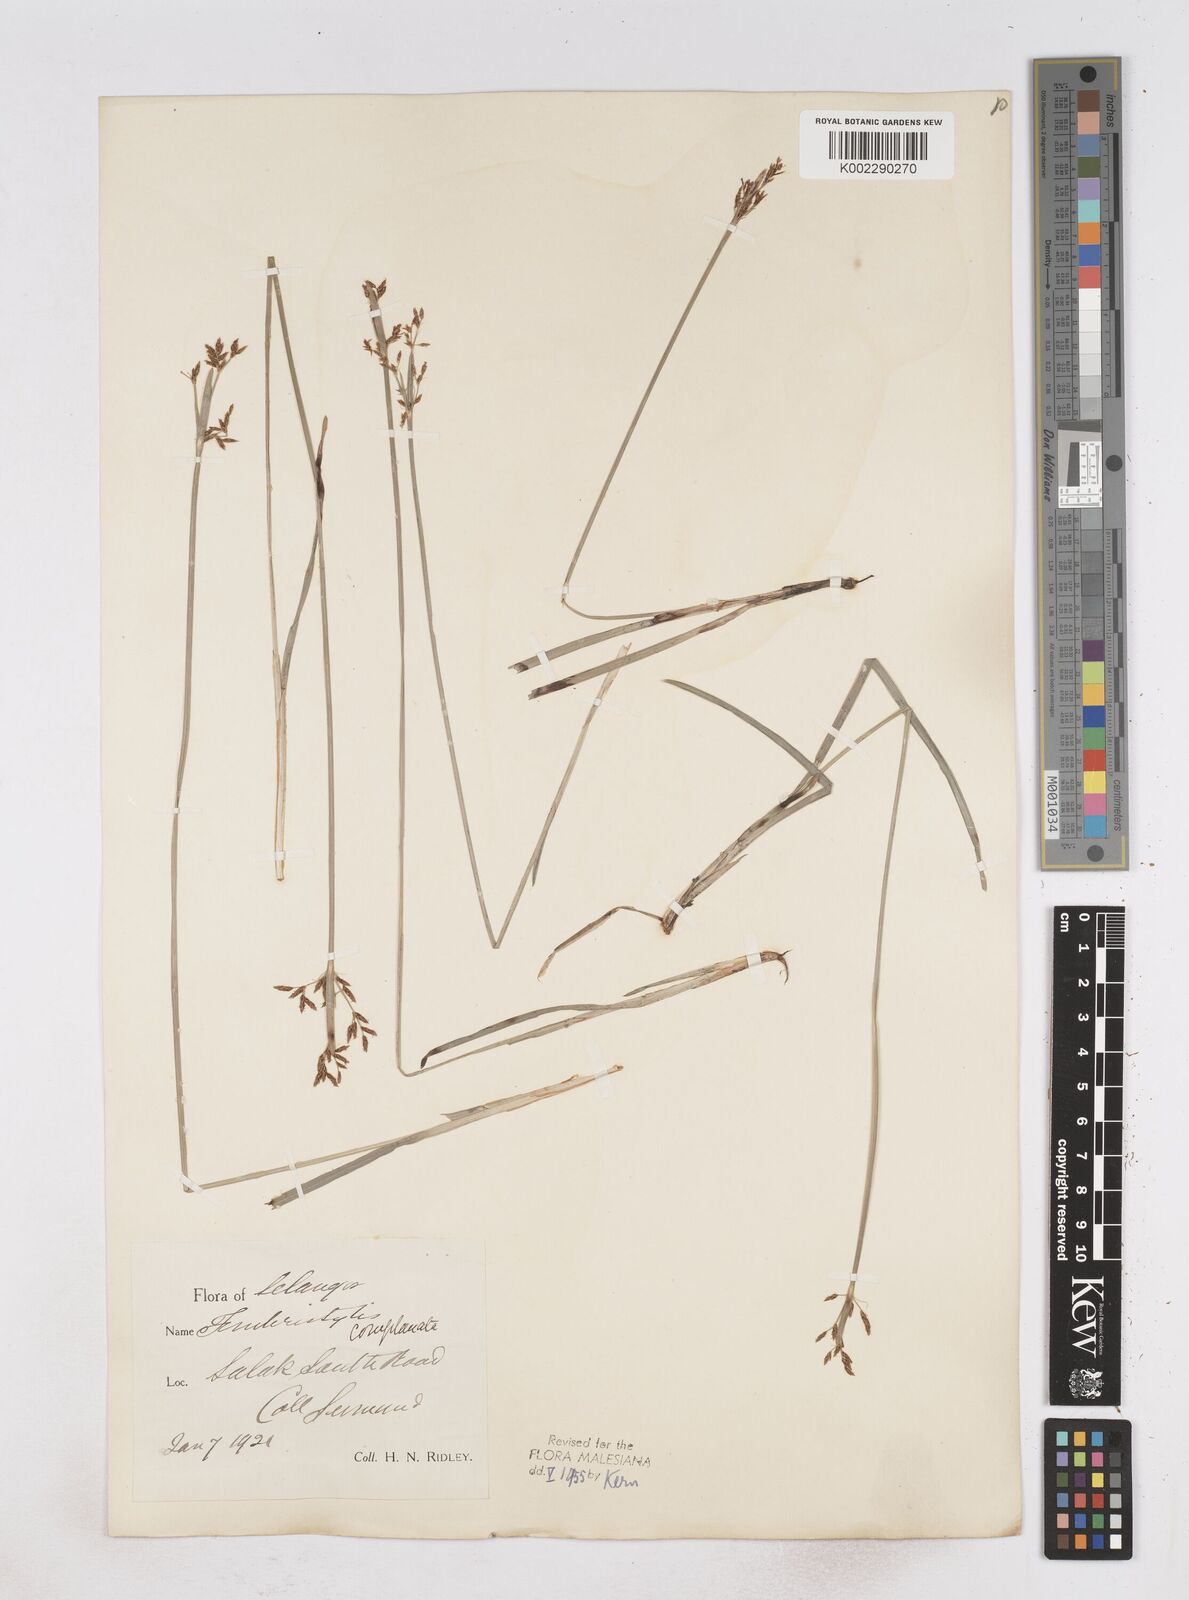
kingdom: Plantae
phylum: Tracheophyta
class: Liliopsida
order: Poales
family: Cyperaceae
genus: Fimbristylis
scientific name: Fimbristylis complanata
